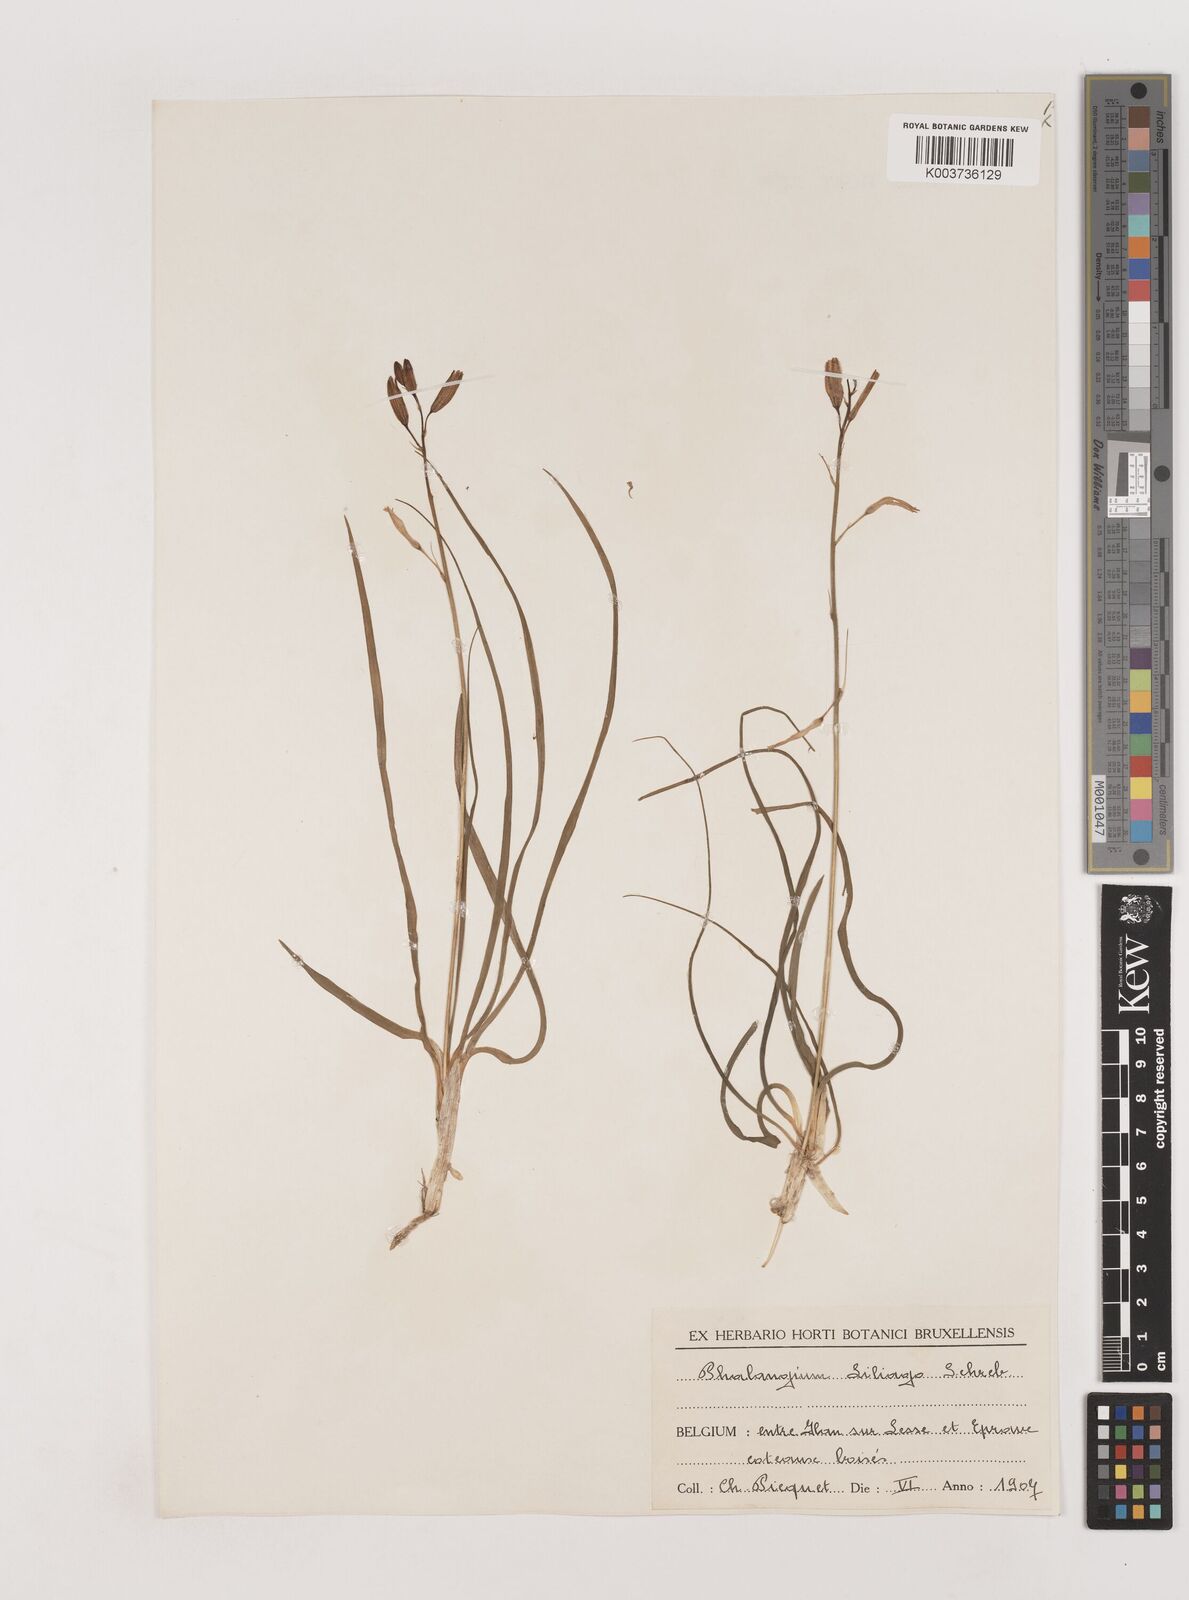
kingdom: Plantae
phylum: Tracheophyta
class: Liliopsida
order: Asparagales
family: Asparagaceae
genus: Anthericum
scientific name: Anthericum liliago
